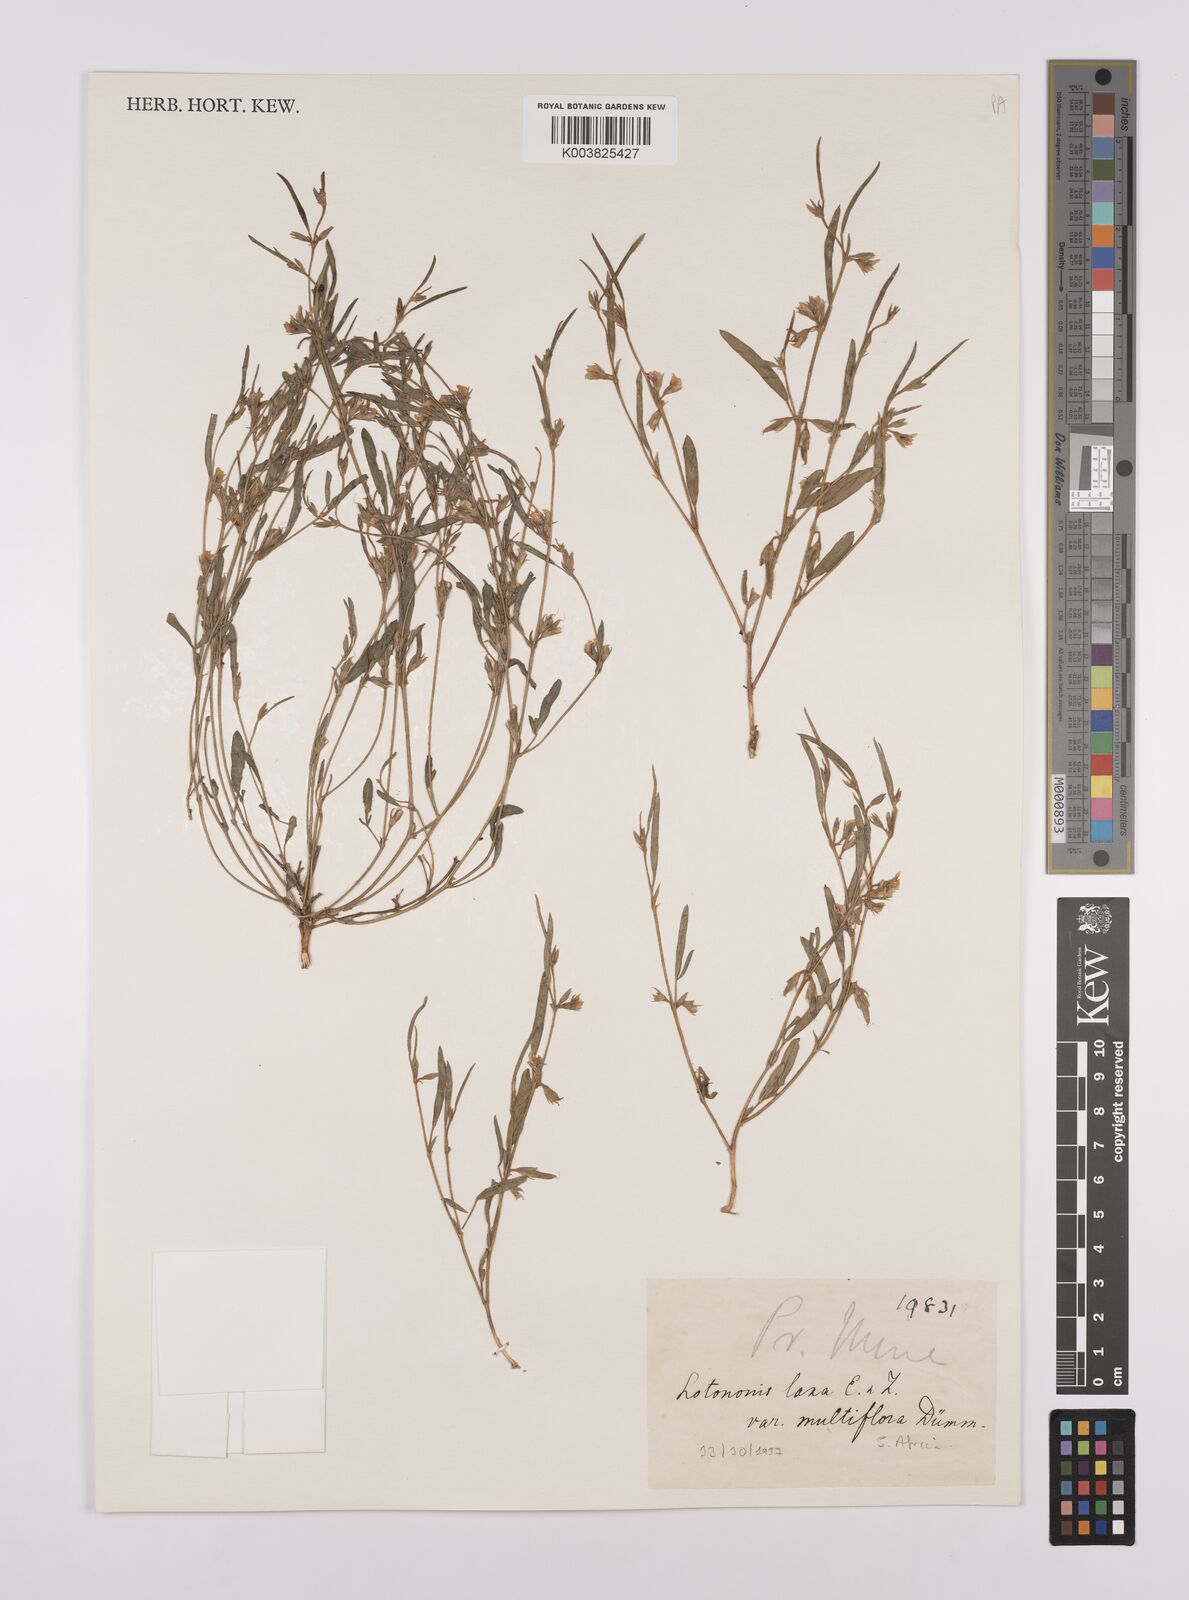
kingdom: Plantae
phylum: Tracheophyta
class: Magnoliopsida
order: Fabales
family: Fabaceae
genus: Lotononis
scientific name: Lotononis laxa
